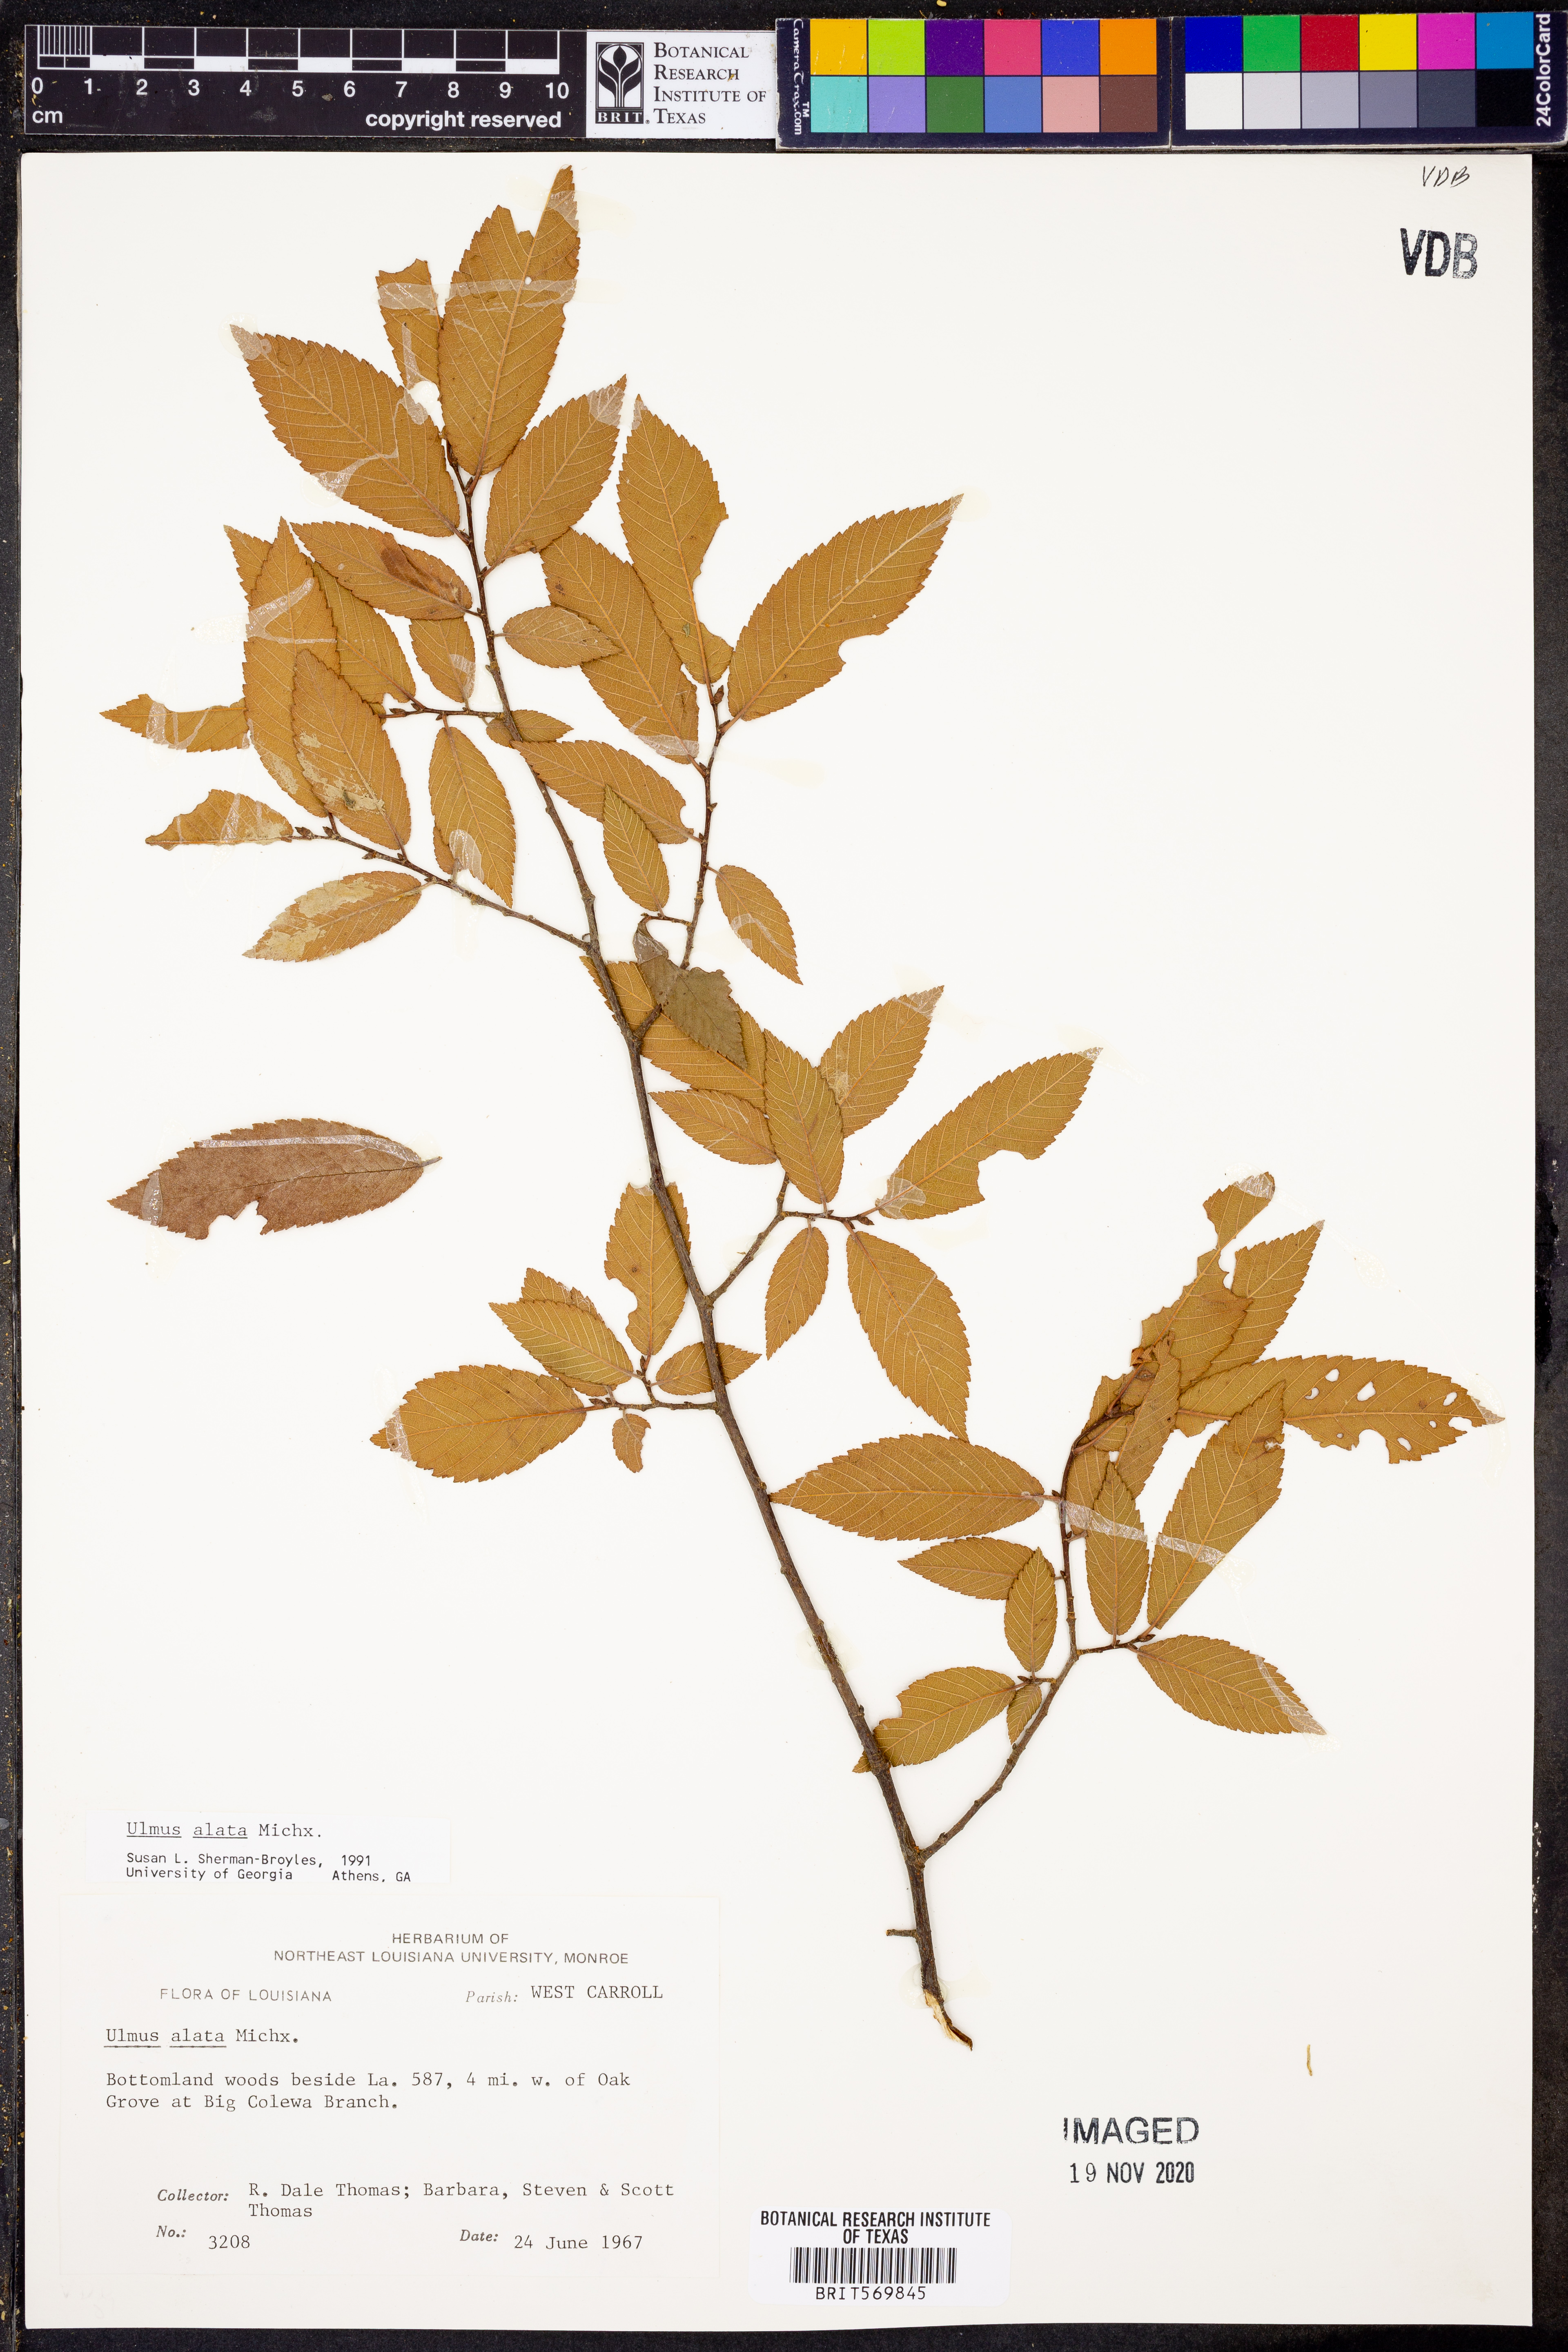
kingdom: Plantae
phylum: Tracheophyta
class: Magnoliopsida
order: Rosales
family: Ulmaceae
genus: Ulmus
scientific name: Ulmus alata
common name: Winged elm
